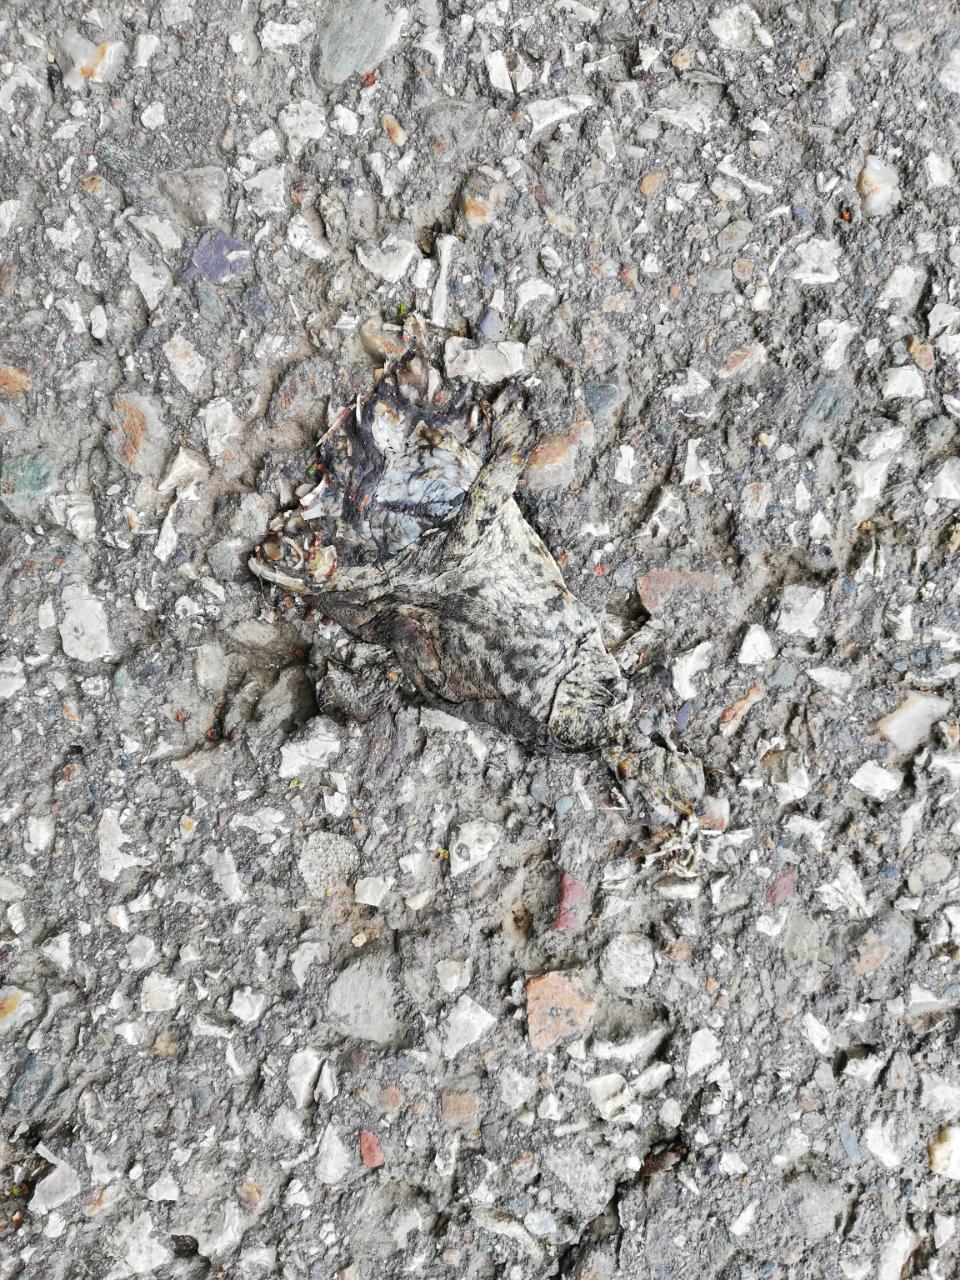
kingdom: Animalia
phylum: Chordata
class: Amphibia
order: Anura
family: Bufonidae
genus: Bufo
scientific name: Bufo bufo
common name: Common toad
